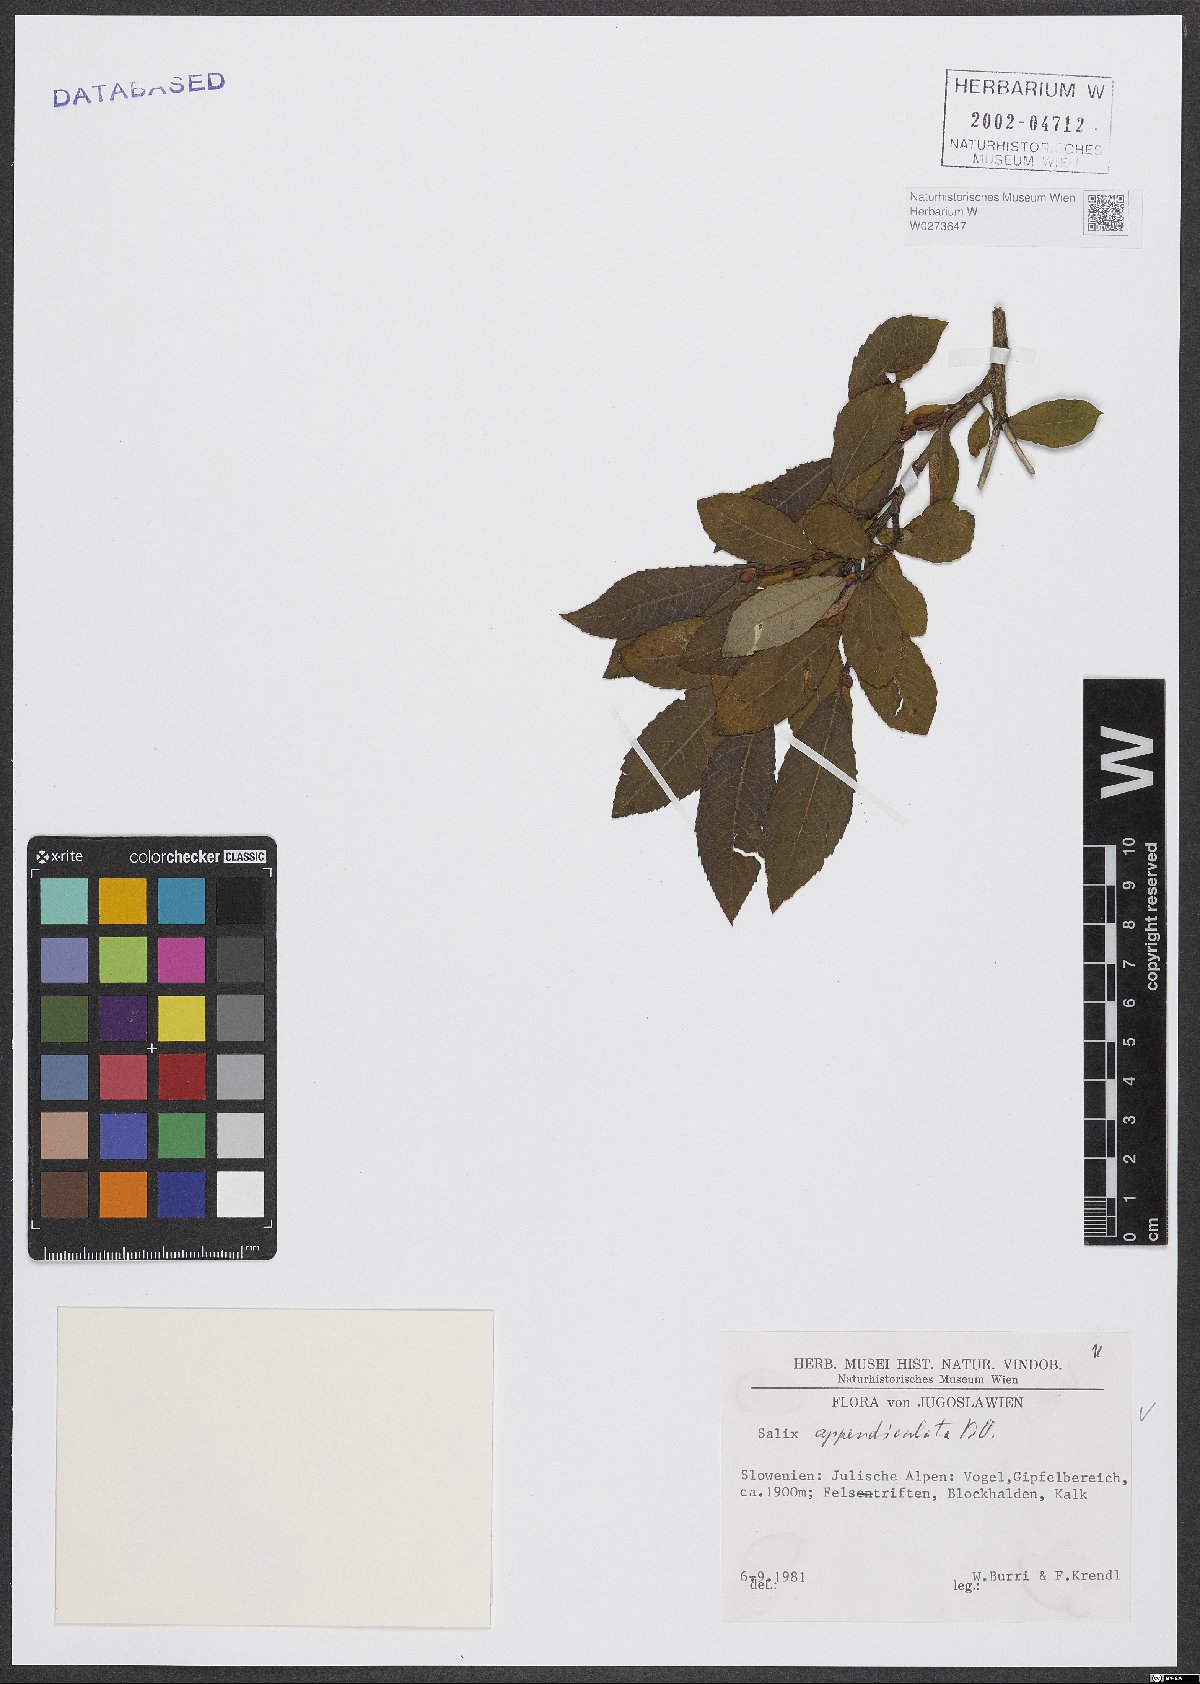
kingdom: Plantae
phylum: Tracheophyta
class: Magnoliopsida
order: Malpighiales
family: Salicaceae
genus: Salix
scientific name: Salix appendiculata
